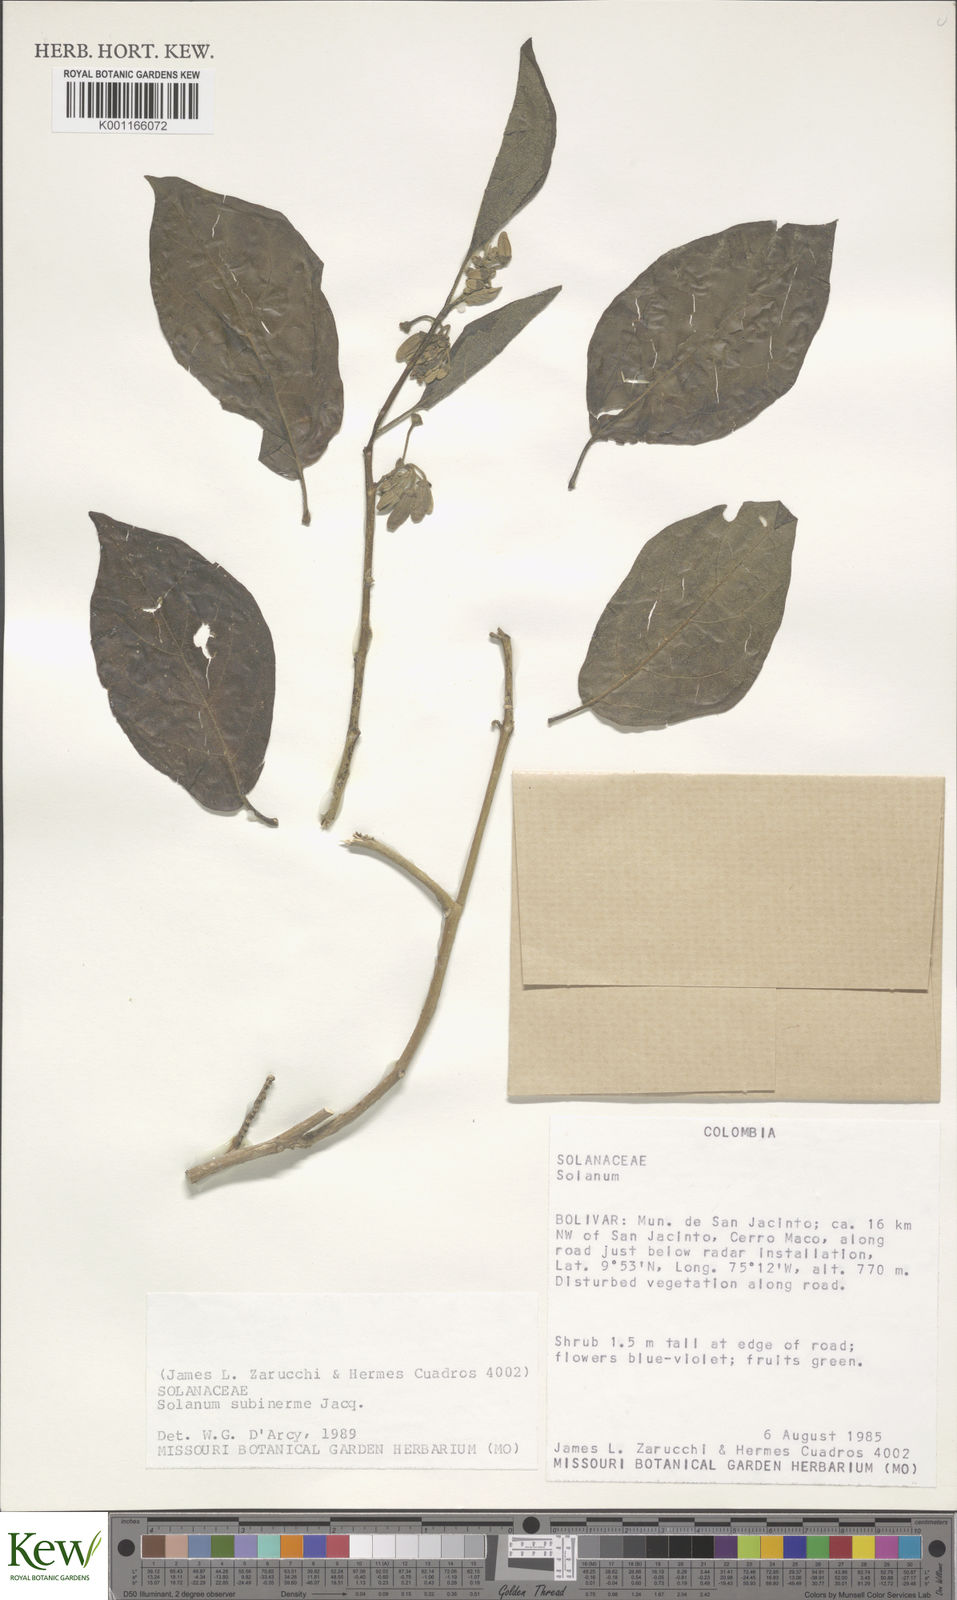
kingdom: Plantae
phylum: Tracheophyta
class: Magnoliopsida
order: Solanales
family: Solanaceae
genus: Solanum
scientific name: Solanum subinerme
